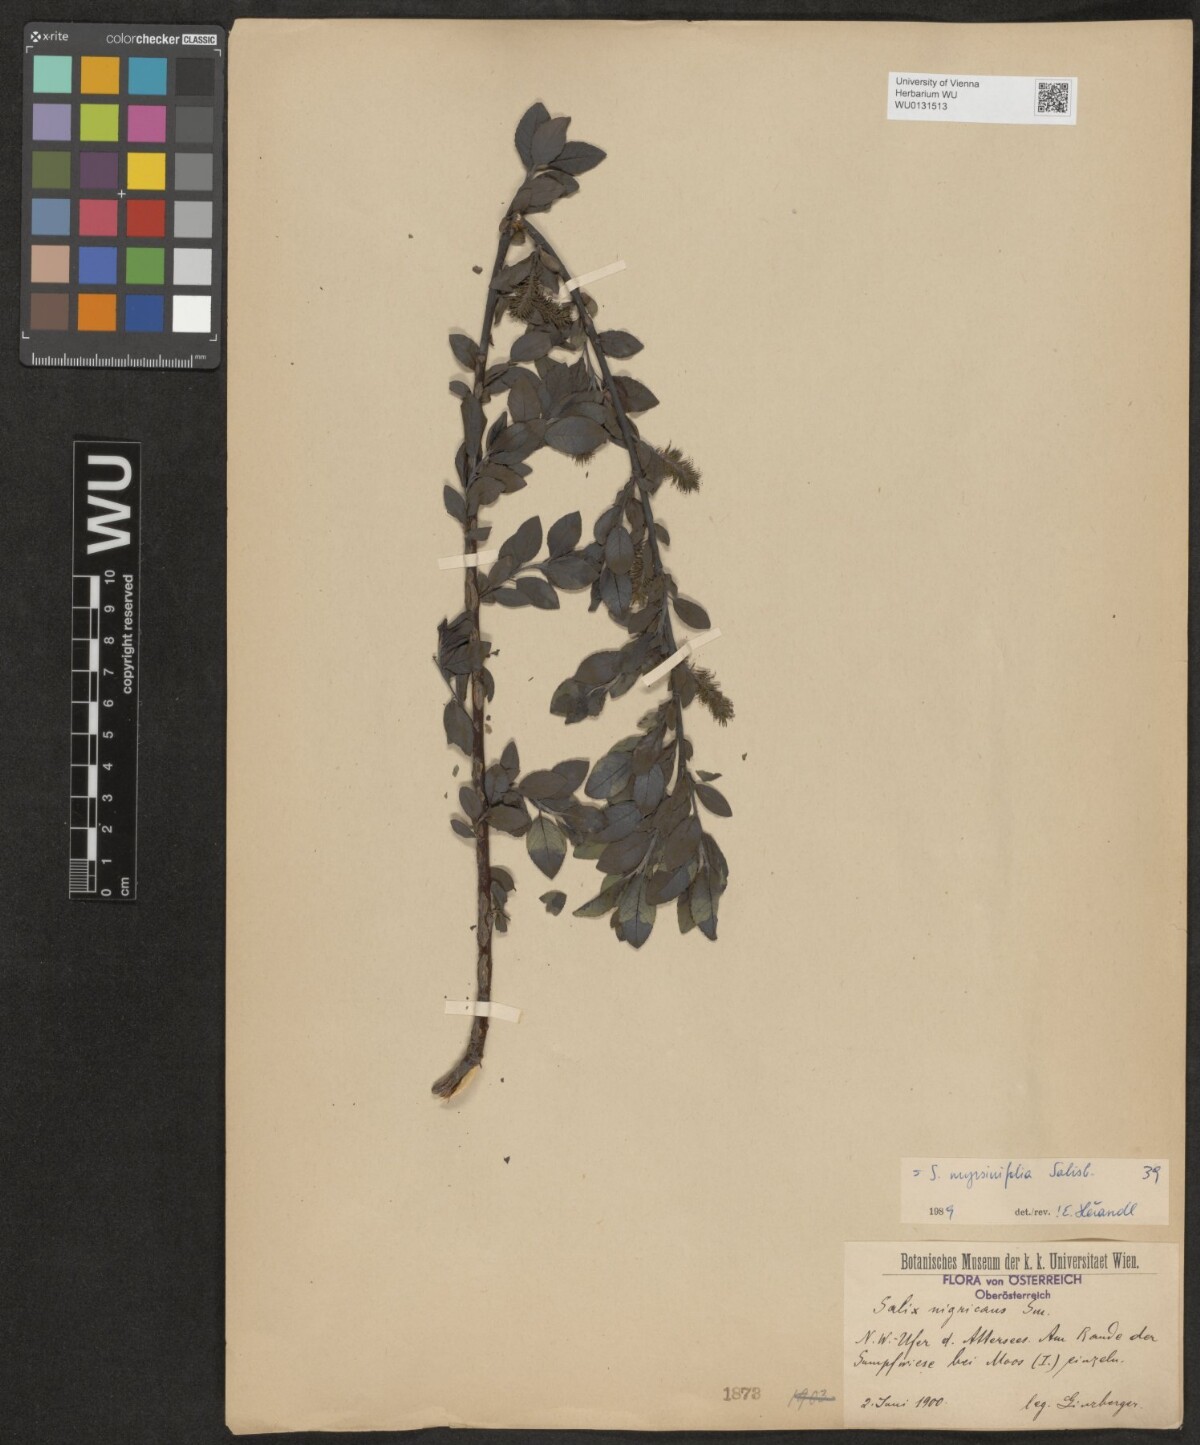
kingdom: Plantae
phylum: Tracheophyta
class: Magnoliopsida
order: Malpighiales
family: Salicaceae
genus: Salix
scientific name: Salix myrsinifolia
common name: Dark-leaved willow
